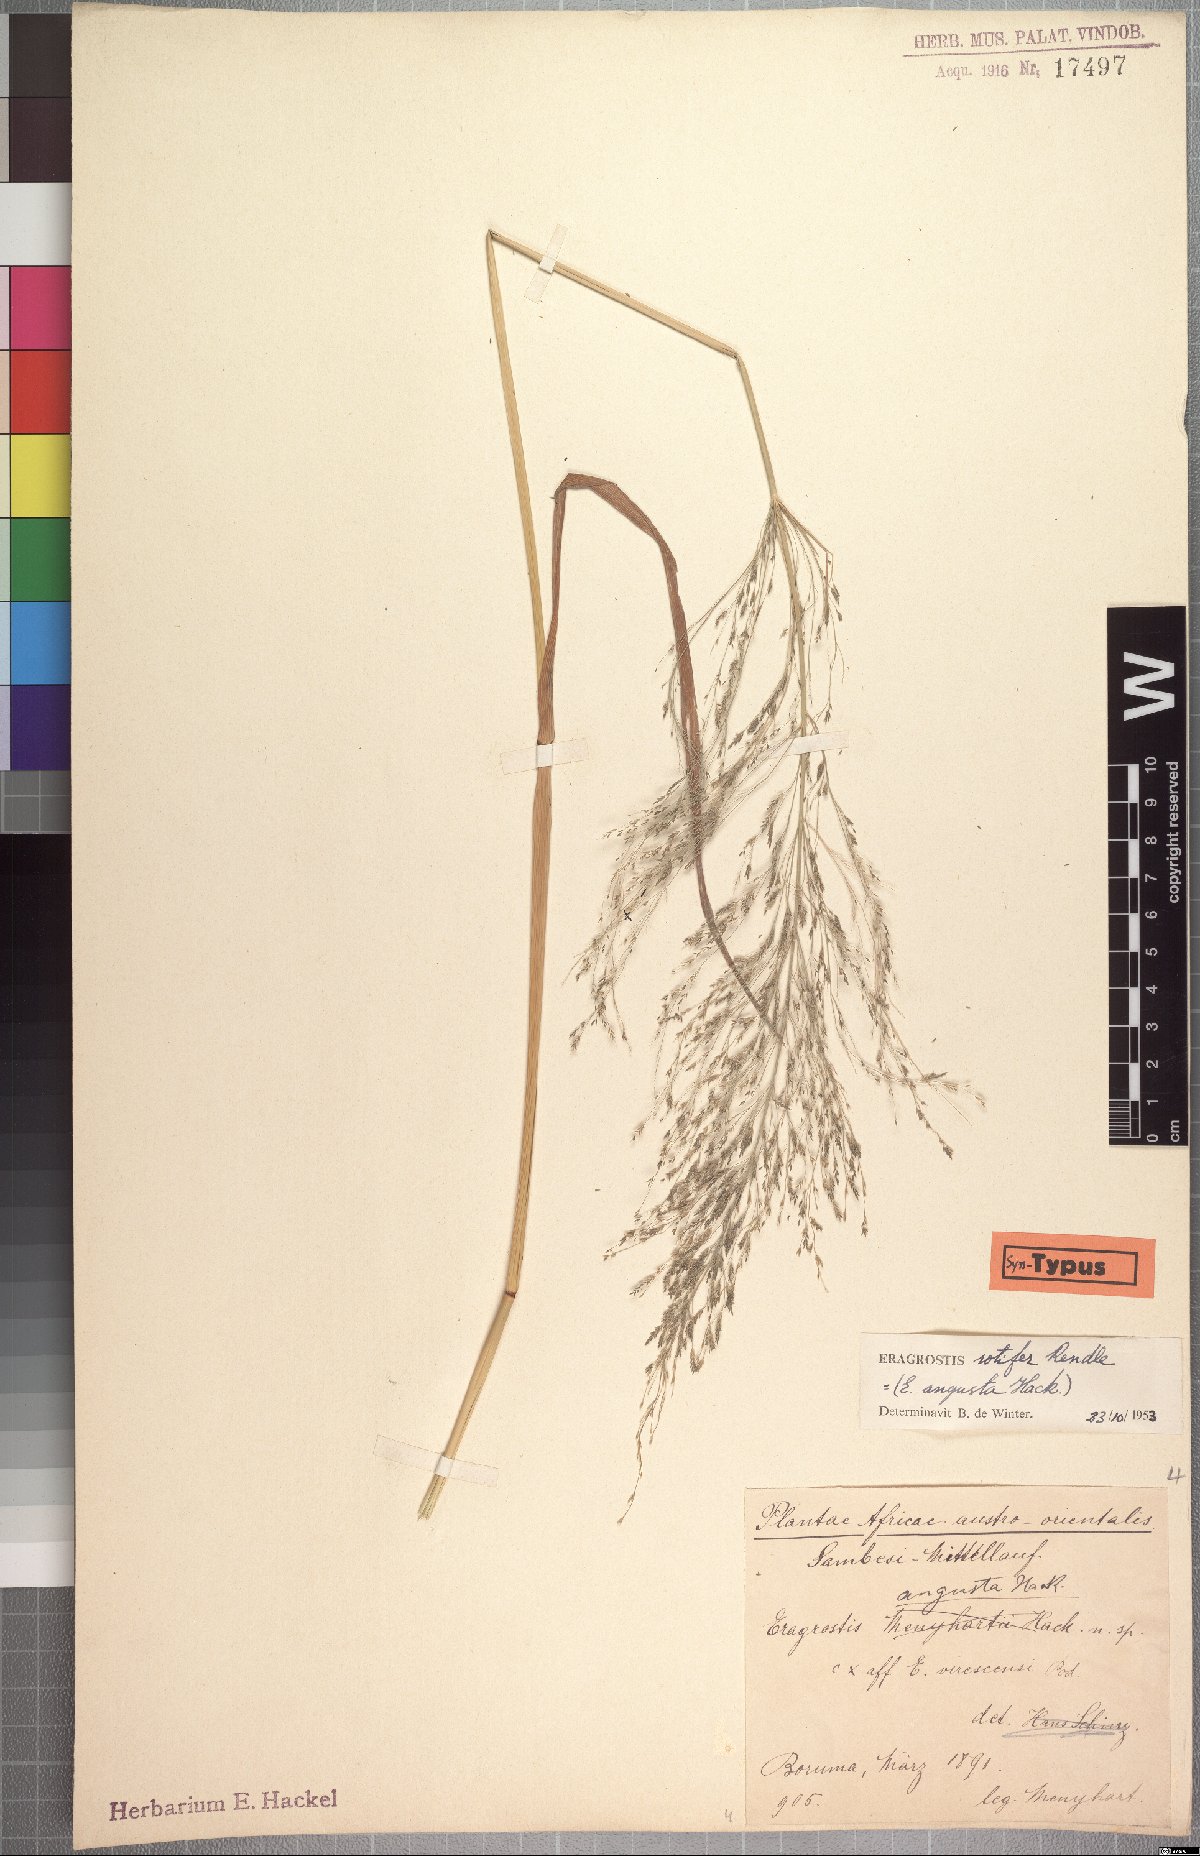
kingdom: Plantae
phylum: Tracheophyta
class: Liliopsida
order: Poales
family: Poaceae
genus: Eragrostis
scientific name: Eragrostis rotifer
